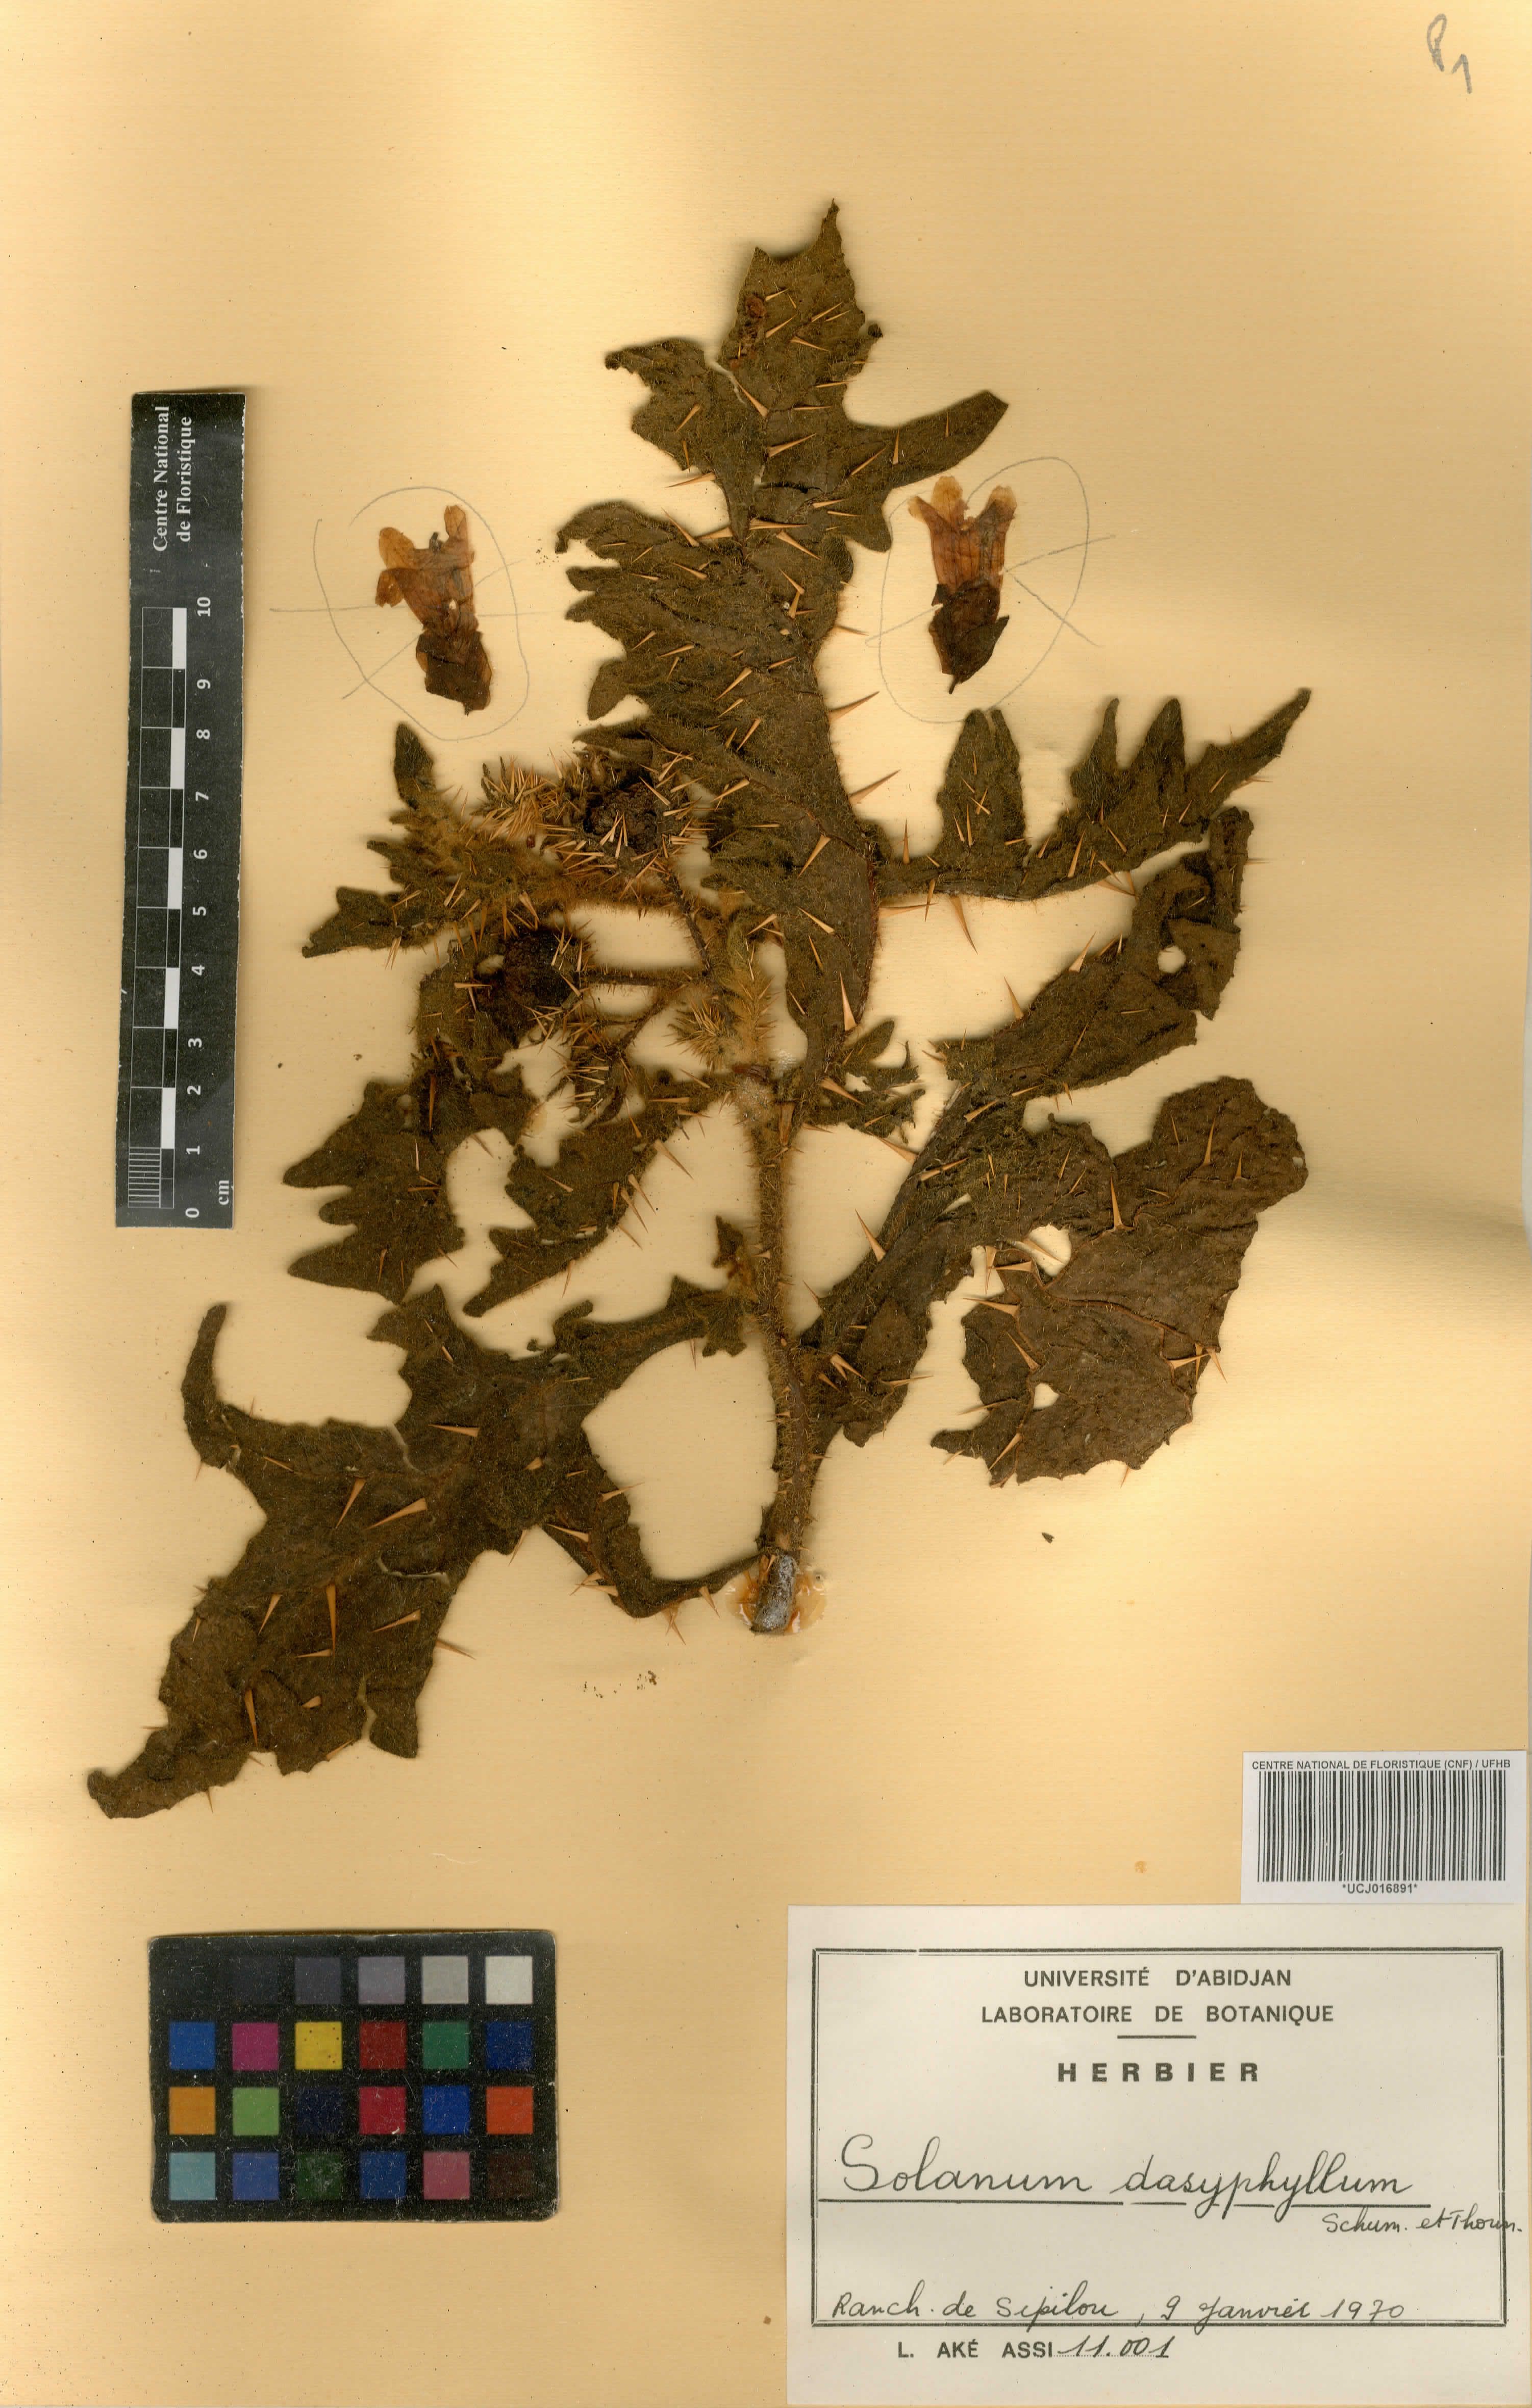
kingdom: Plantae
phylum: Tracheophyta
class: Magnoliopsida
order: Solanales
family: Solanaceae
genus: Solanum
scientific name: Solanum dasyphyllum
